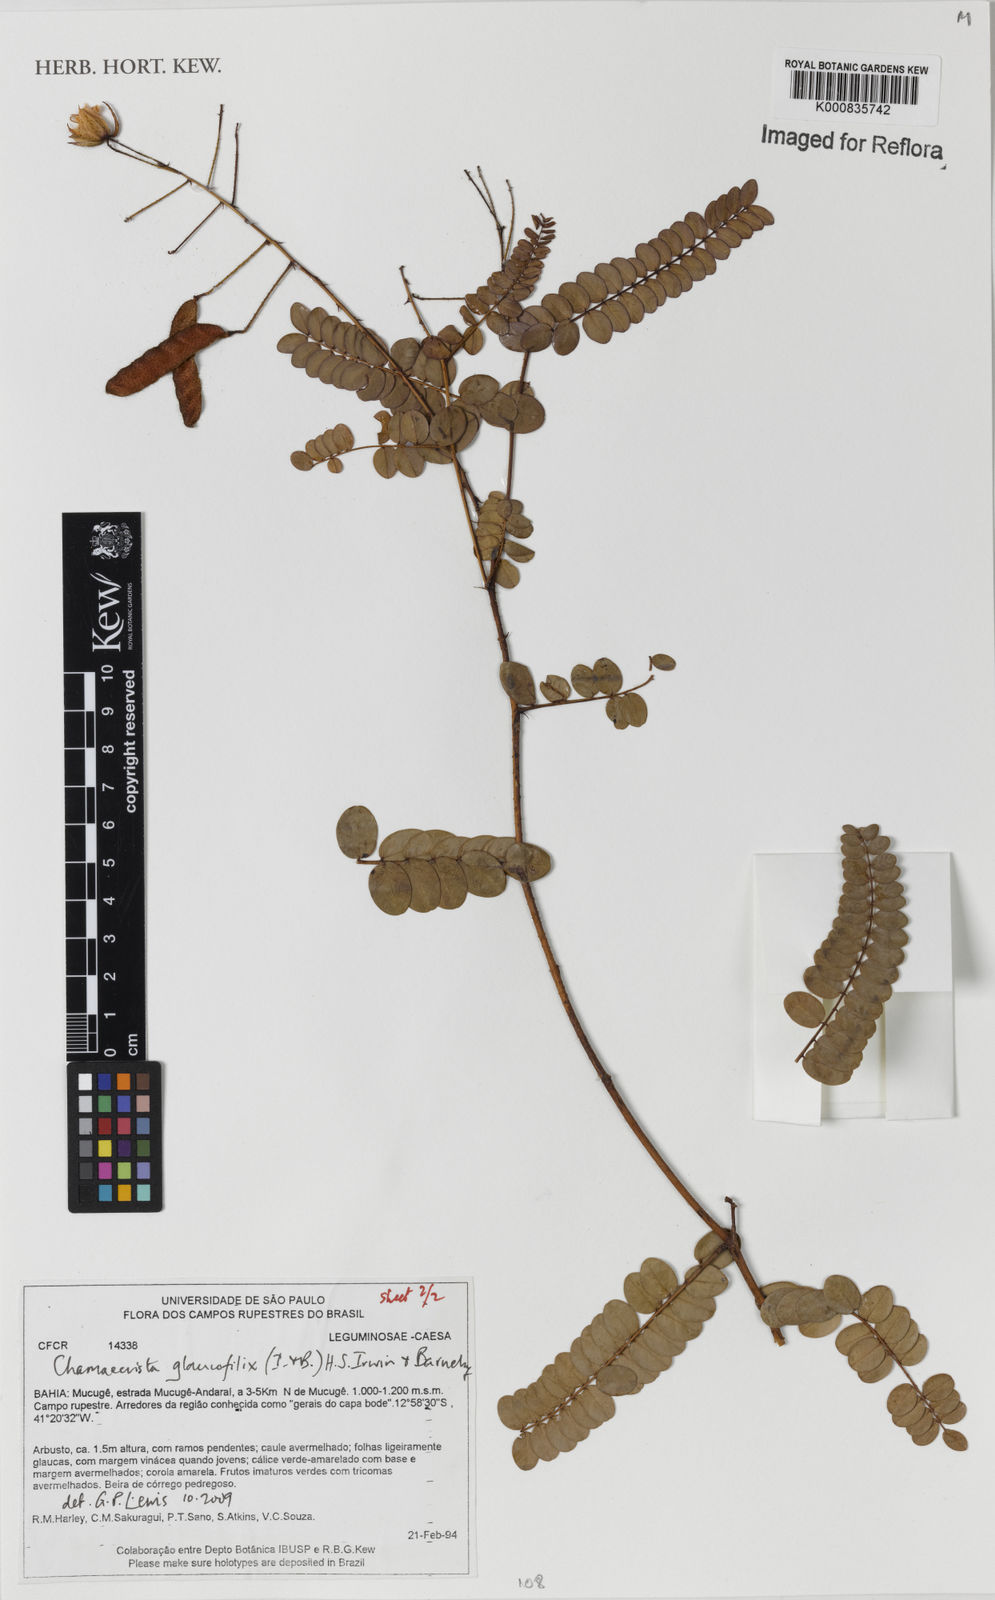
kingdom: Plantae
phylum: Tracheophyta
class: Magnoliopsida
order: Fabales
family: Fabaceae
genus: Chamaecrista
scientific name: Chamaecrista glaucofilix
